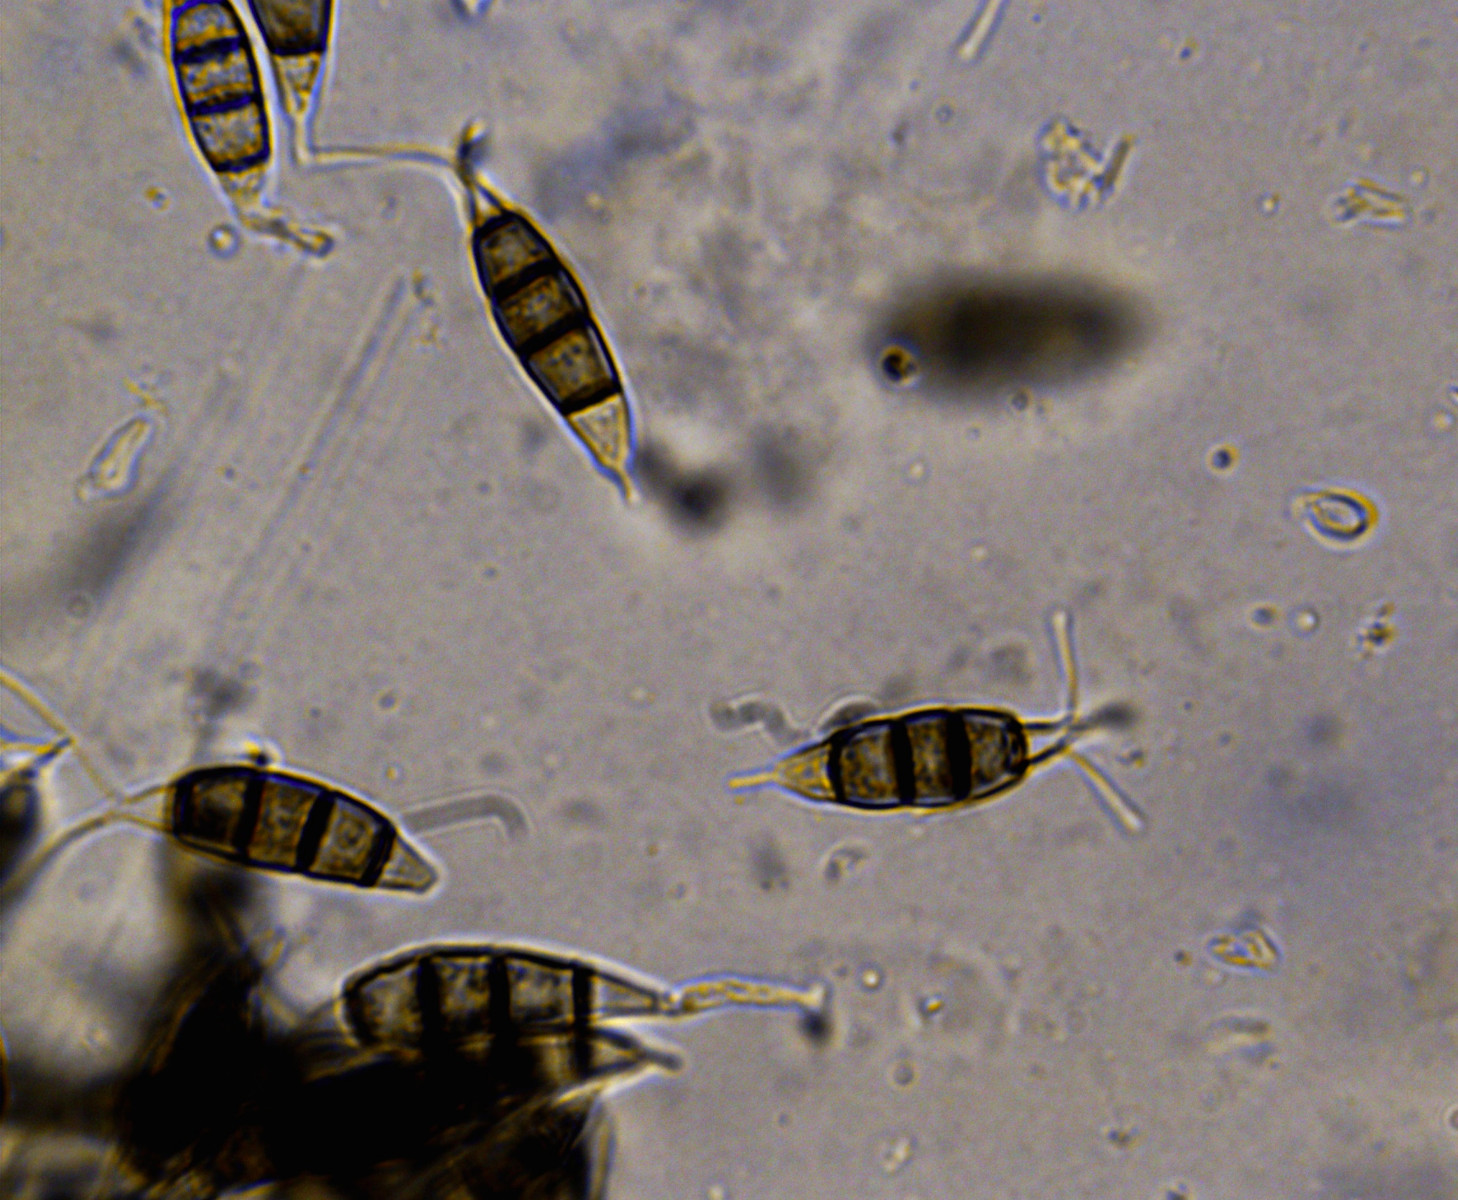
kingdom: Fungi
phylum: Ascomycota
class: Sordariomycetes
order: Amphisphaeriales
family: Pestalotiopsidaceae
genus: Pestalotiopsis
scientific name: Pestalotiopsis
